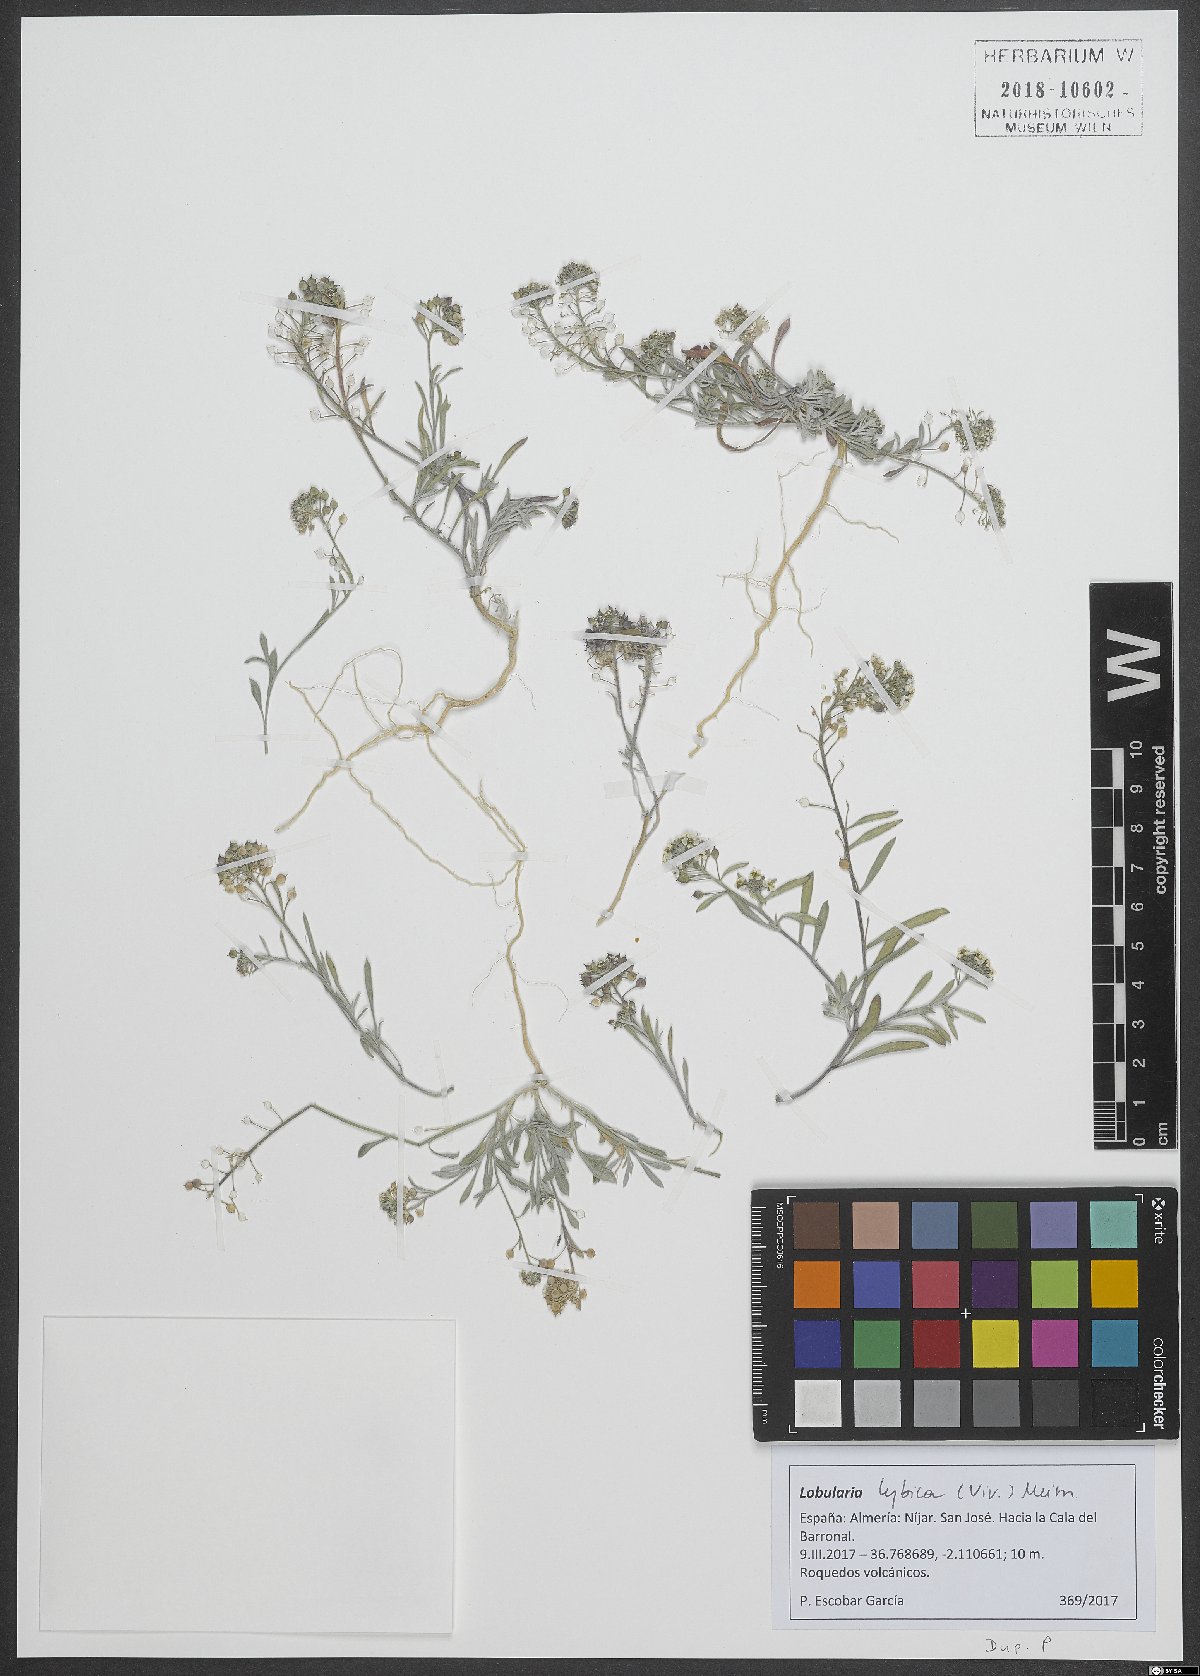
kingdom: Plantae
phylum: Tracheophyta
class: Magnoliopsida
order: Brassicales
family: Brassicaceae
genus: Lobularia
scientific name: Lobularia libyca
